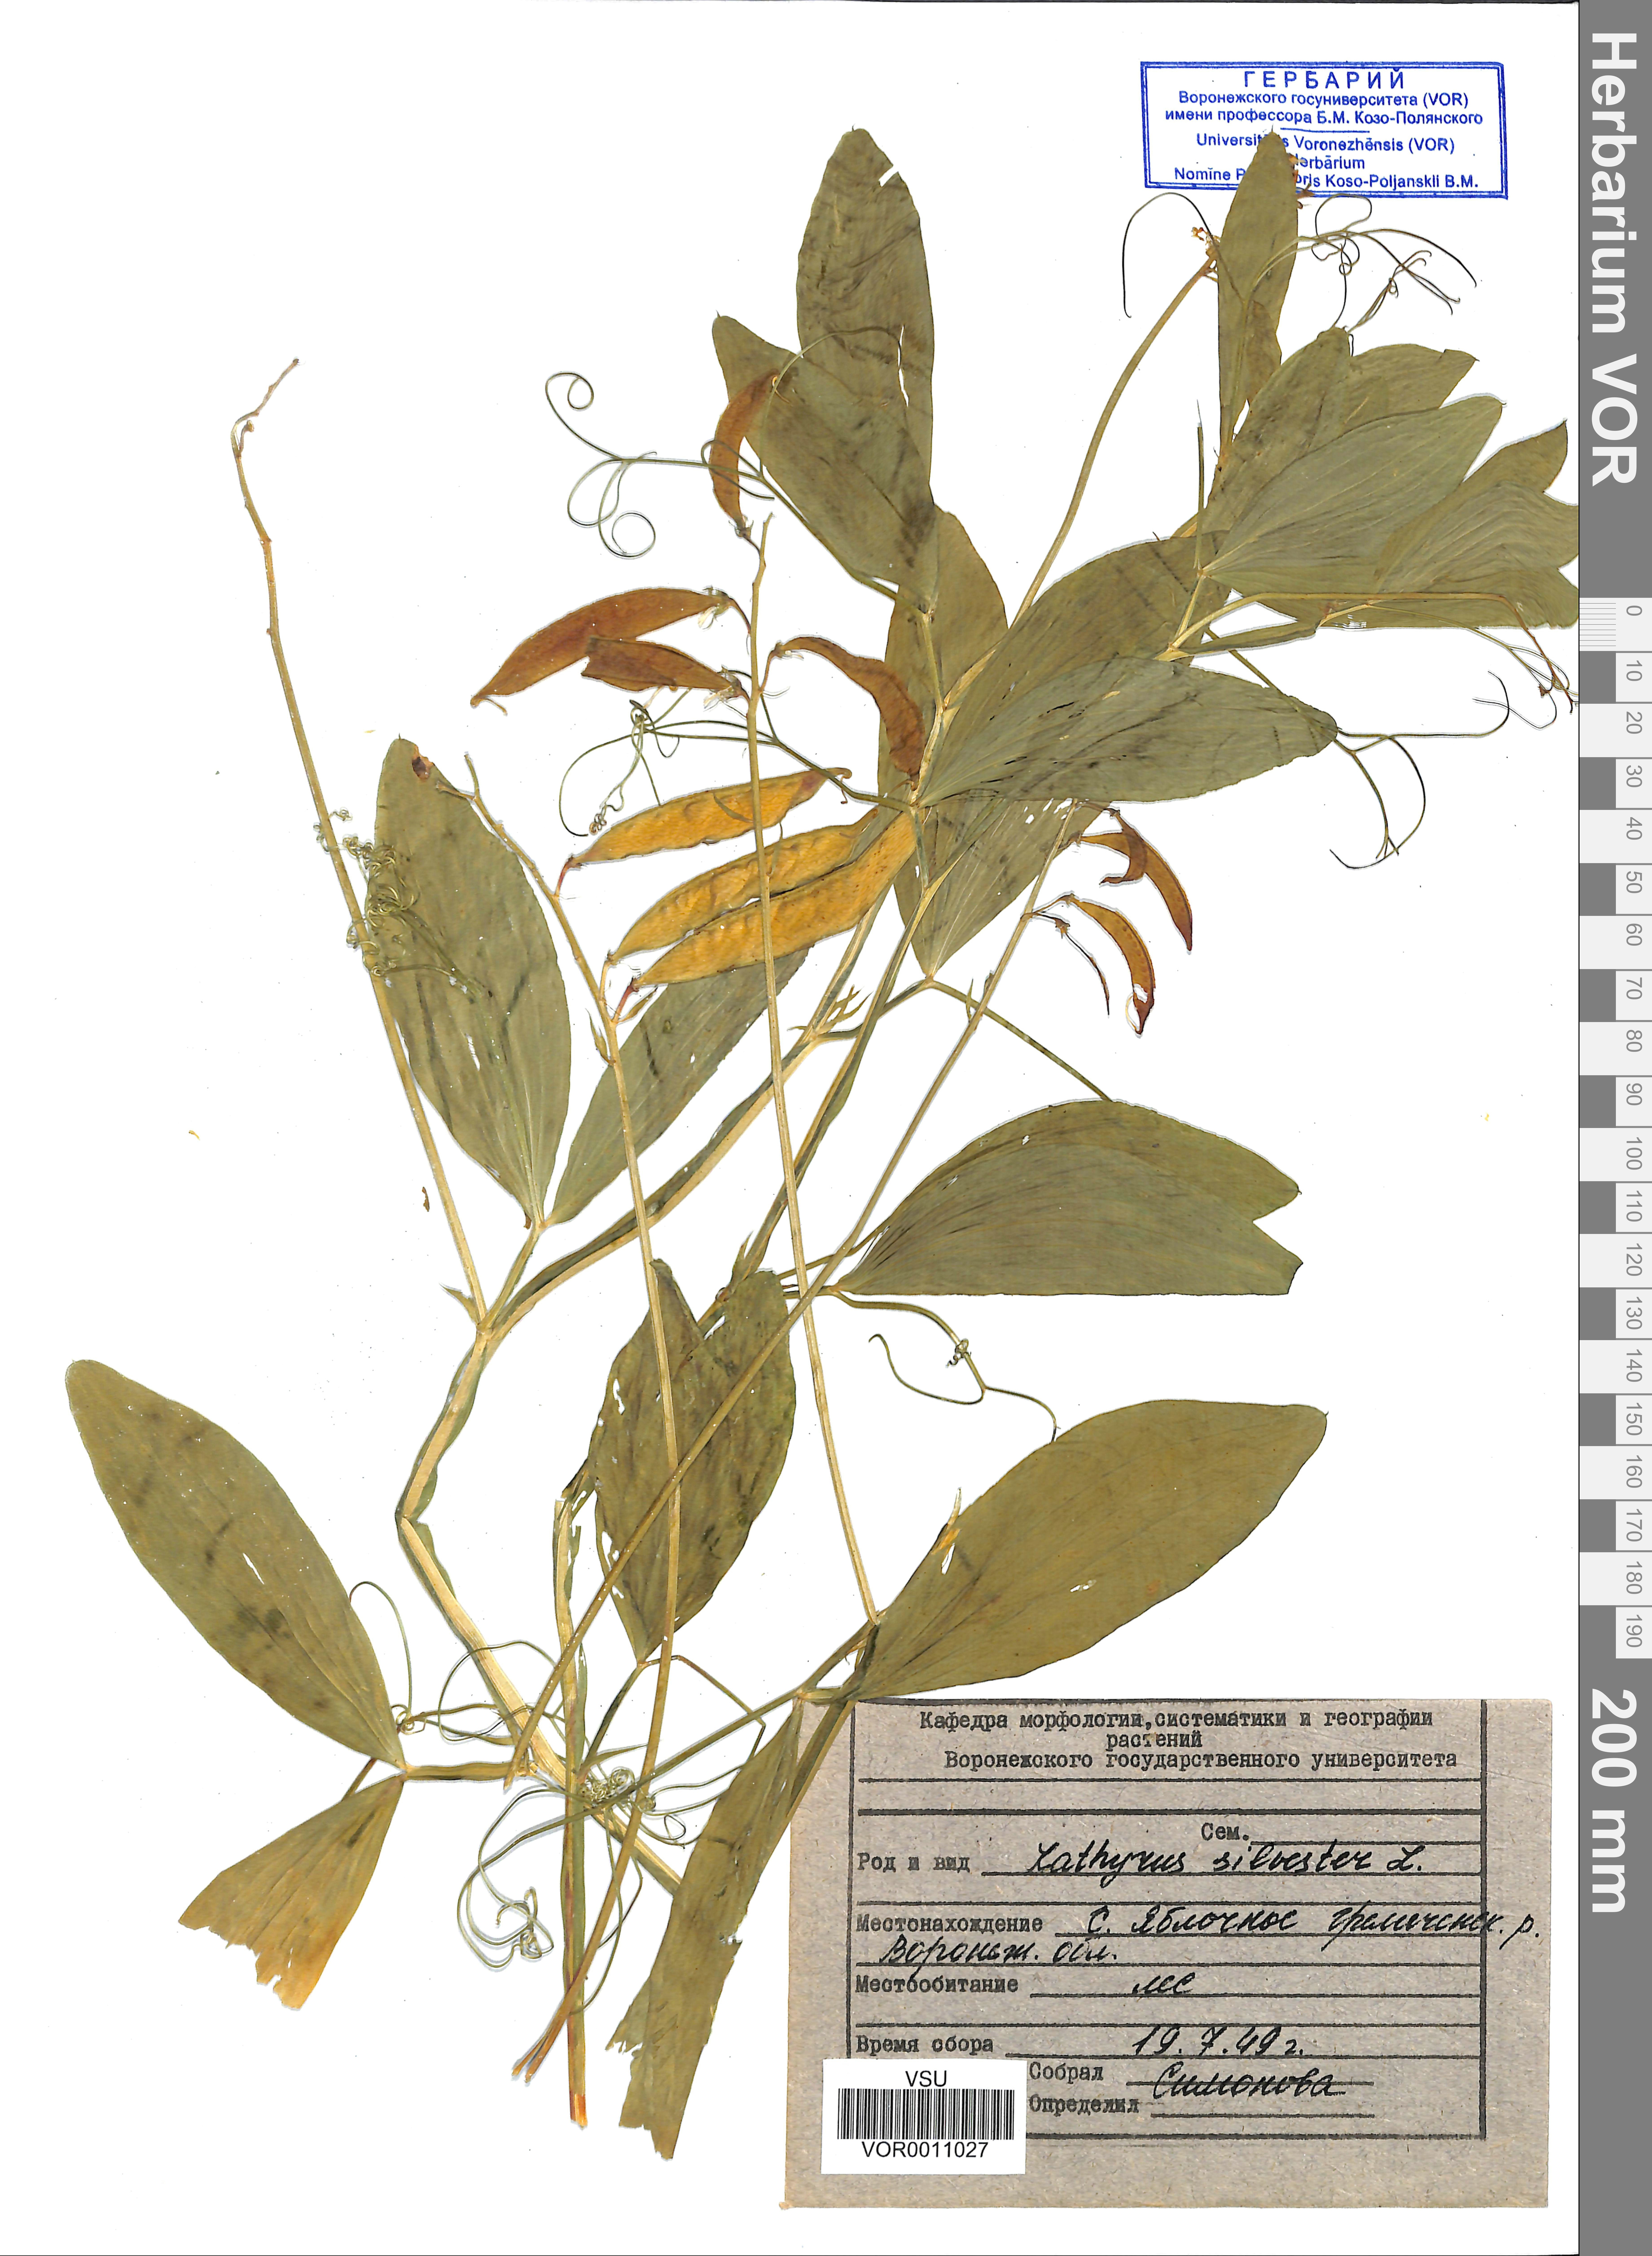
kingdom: Plantae
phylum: Tracheophyta
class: Magnoliopsida
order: Fabales
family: Fabaceae
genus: Lathyrus
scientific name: Lathyrus sylvestris
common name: Flat pea
